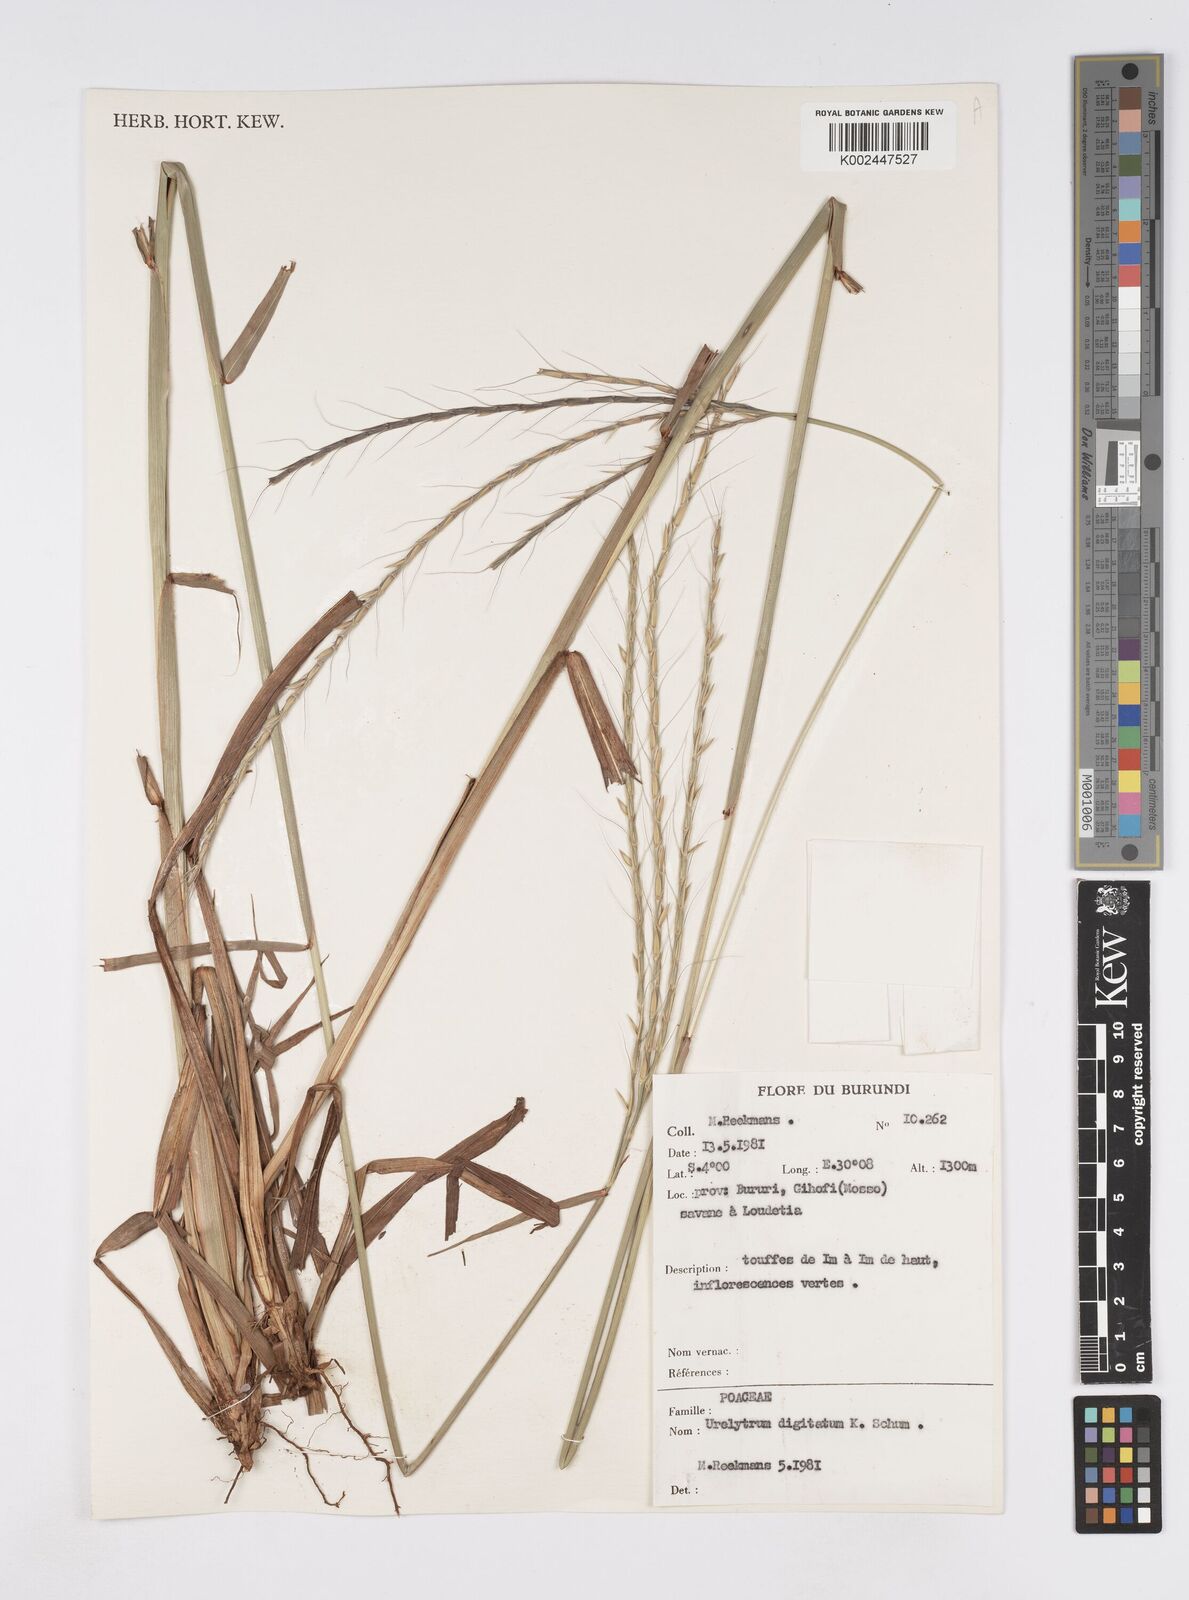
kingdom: Plantae
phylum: Tracheophyta
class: Liliopsida
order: Poales
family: Poaceae
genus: Urelytrum
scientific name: Urelytrum digitatum
